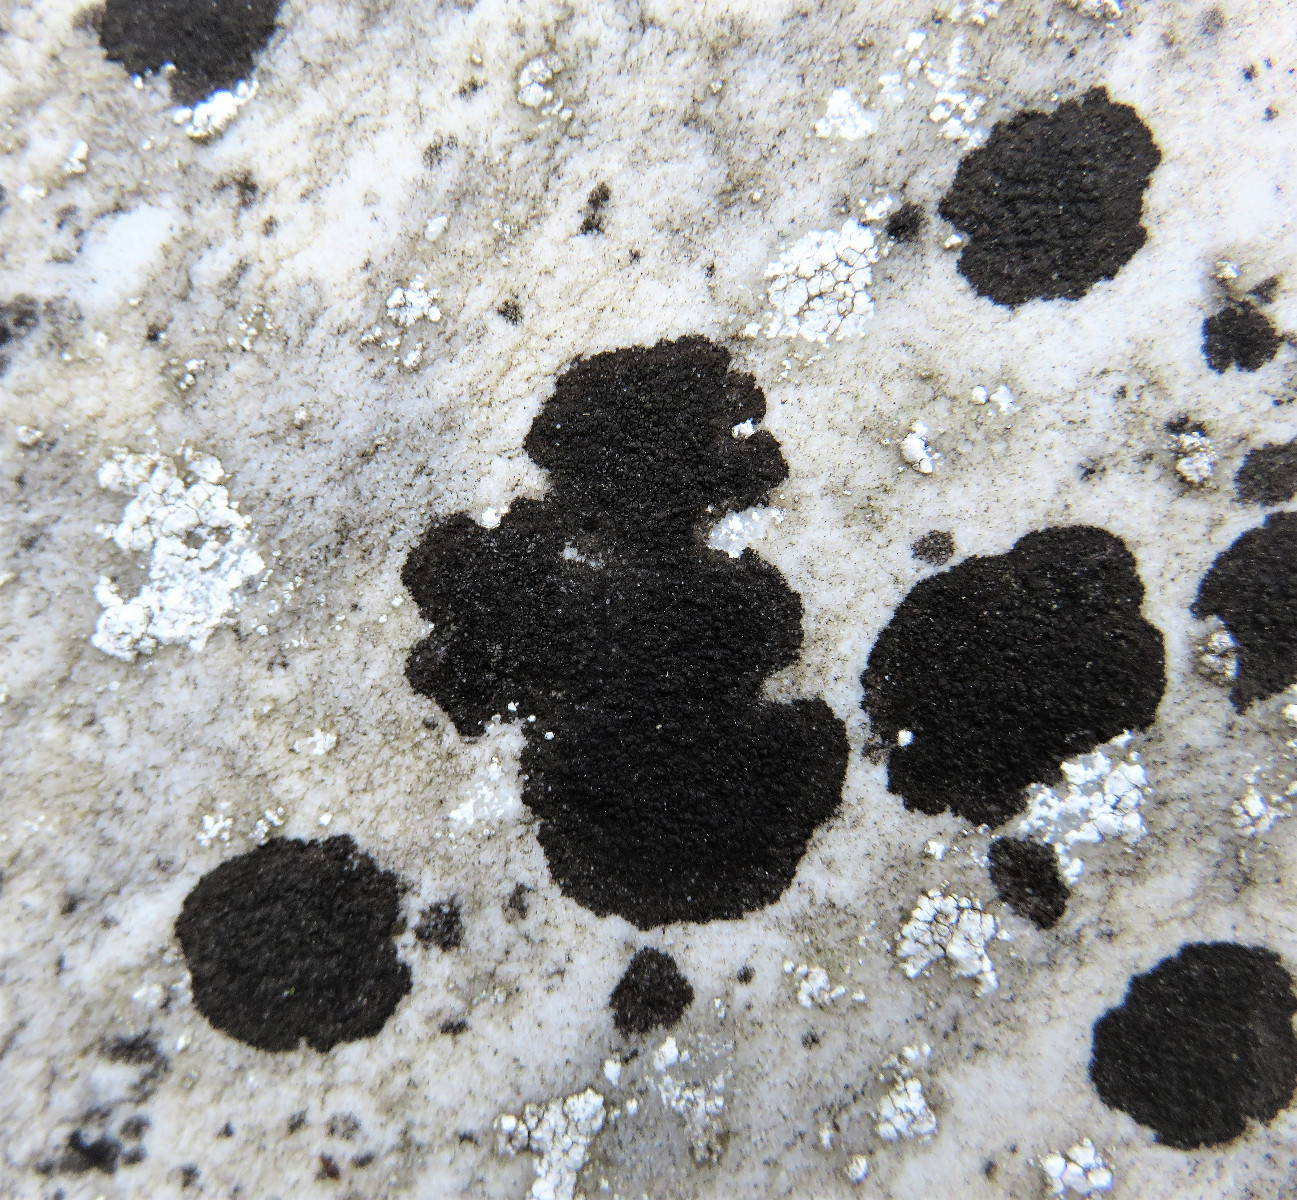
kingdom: Fungi
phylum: Ascomycota
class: Eurotiomycetes
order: Verrucariales
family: Verrucariaceae
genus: Verrucaria
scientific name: Verrucaria nigrescens
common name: sortbrun vortelav
